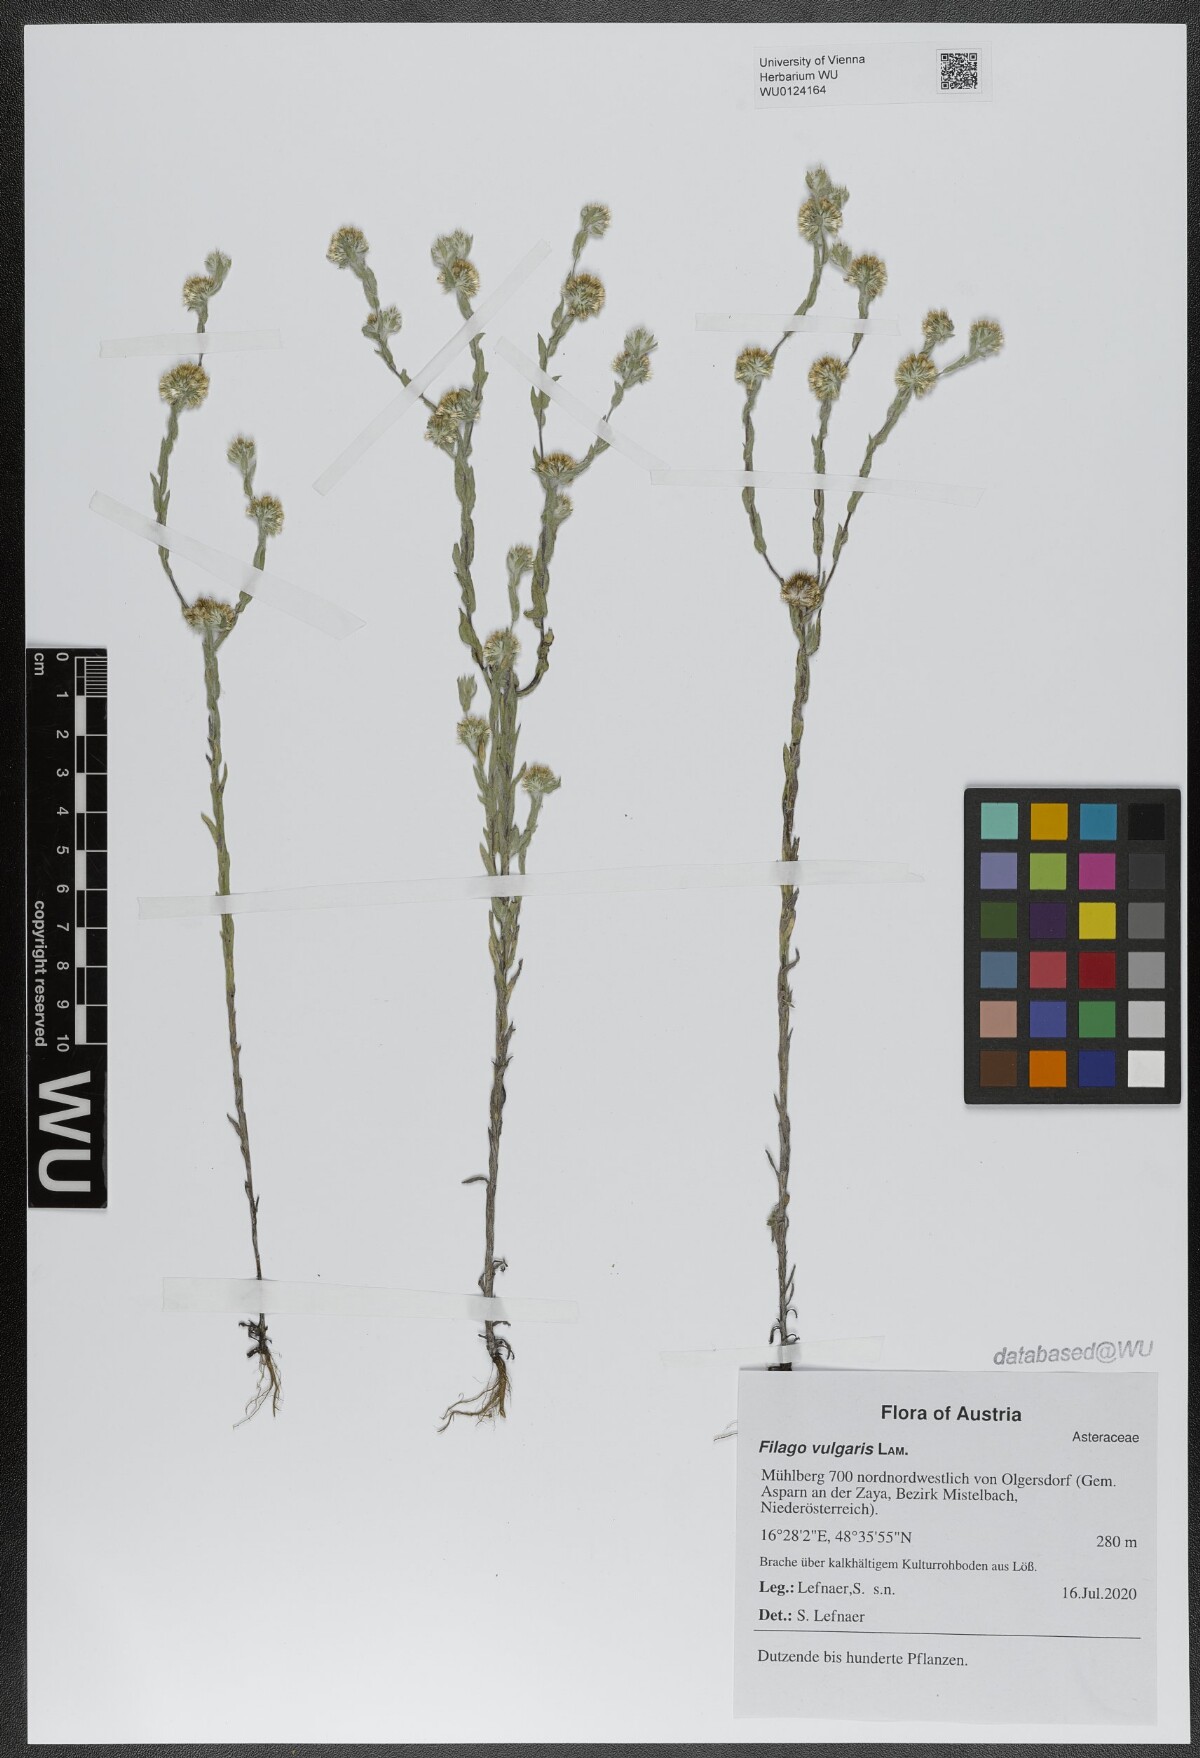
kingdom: Plantae
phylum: Tracheophyta
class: Magnoliopsida
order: Asterales
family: Asteraceae
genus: Filago
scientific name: Filago germanica
